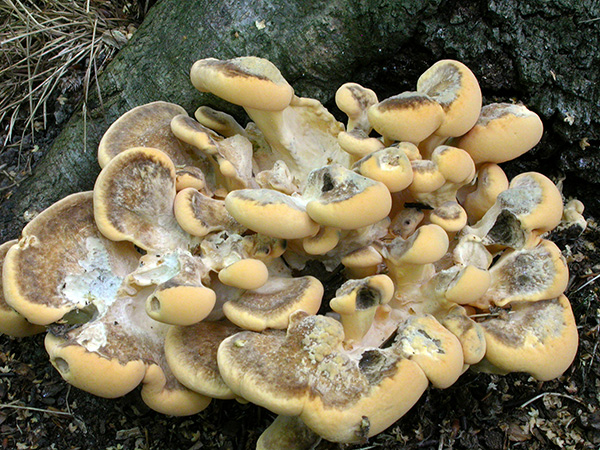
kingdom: Fungi
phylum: Basidiomycota
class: Agaricomycetes
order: Polyporales
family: Meripilaceae
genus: Meripilus
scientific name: Meripilus giganteus
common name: kæmpeporesvamp
